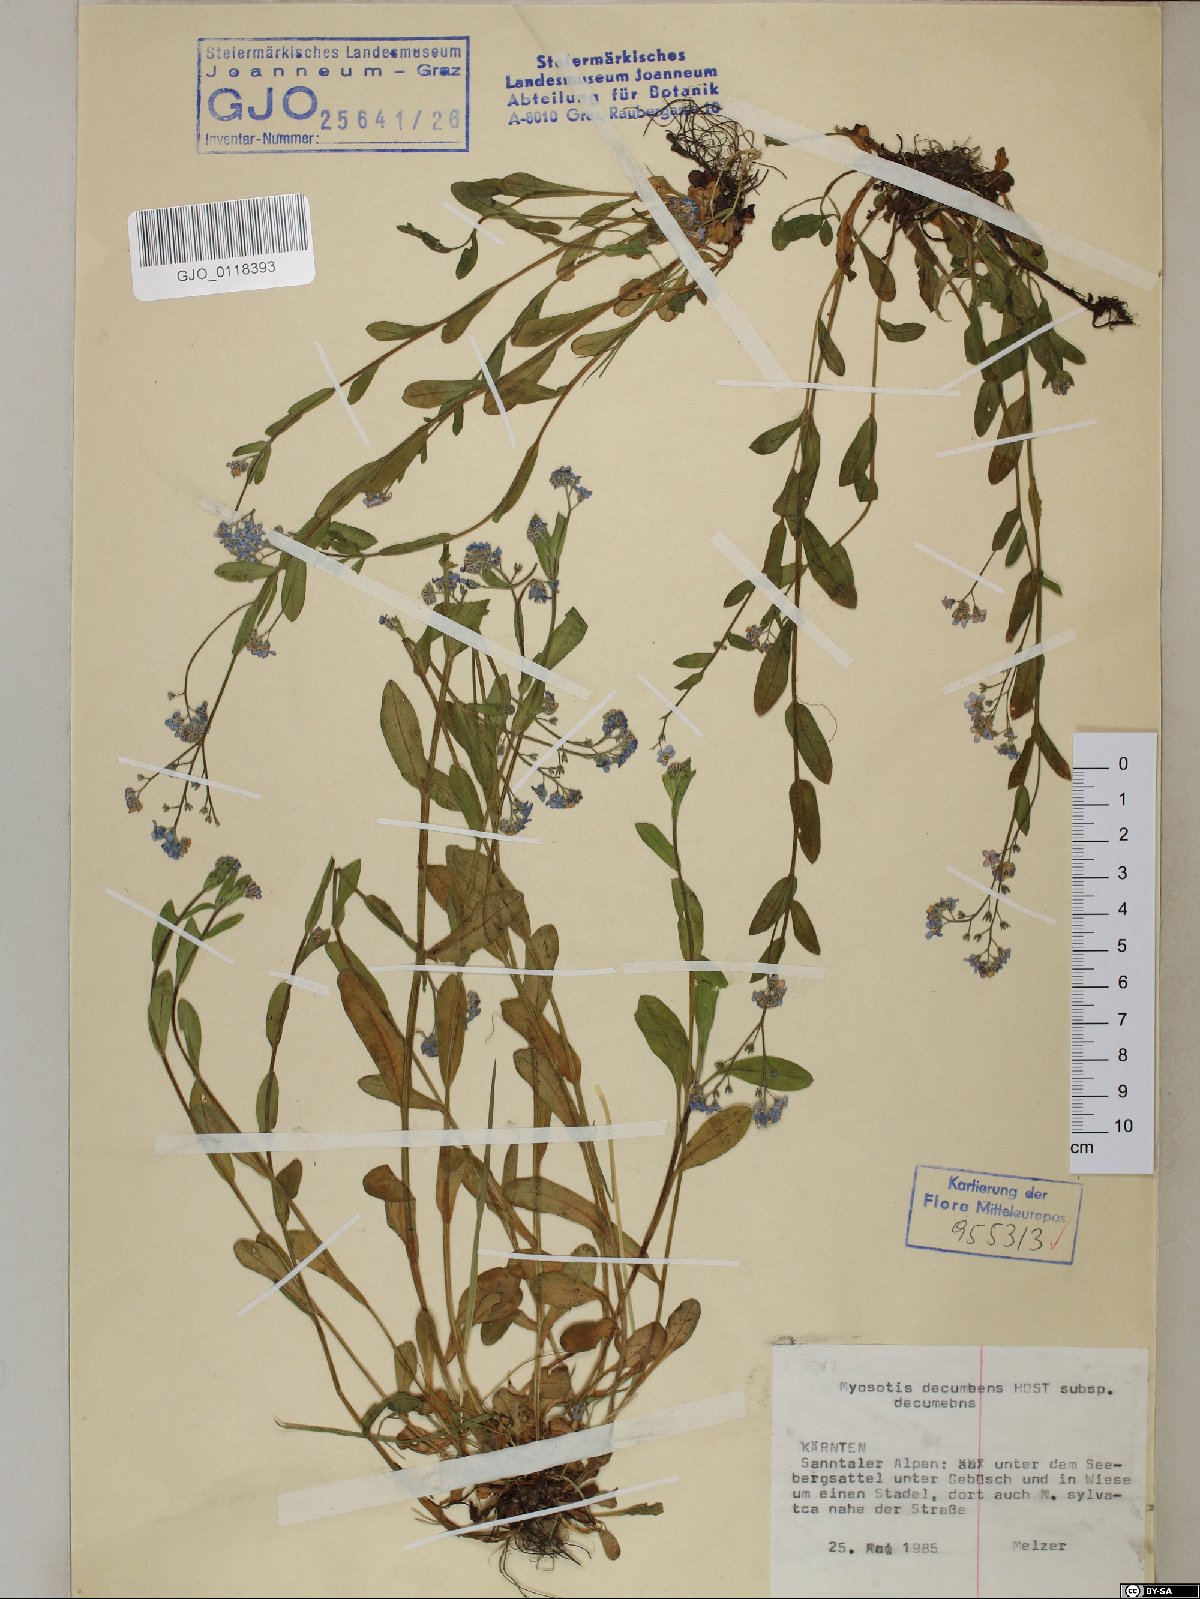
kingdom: Plantae
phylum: Tracheophyta
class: Magnoliopsida
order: Boraginales
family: Boraginaceae
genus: Myosotis
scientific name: Myosotis decumbens
